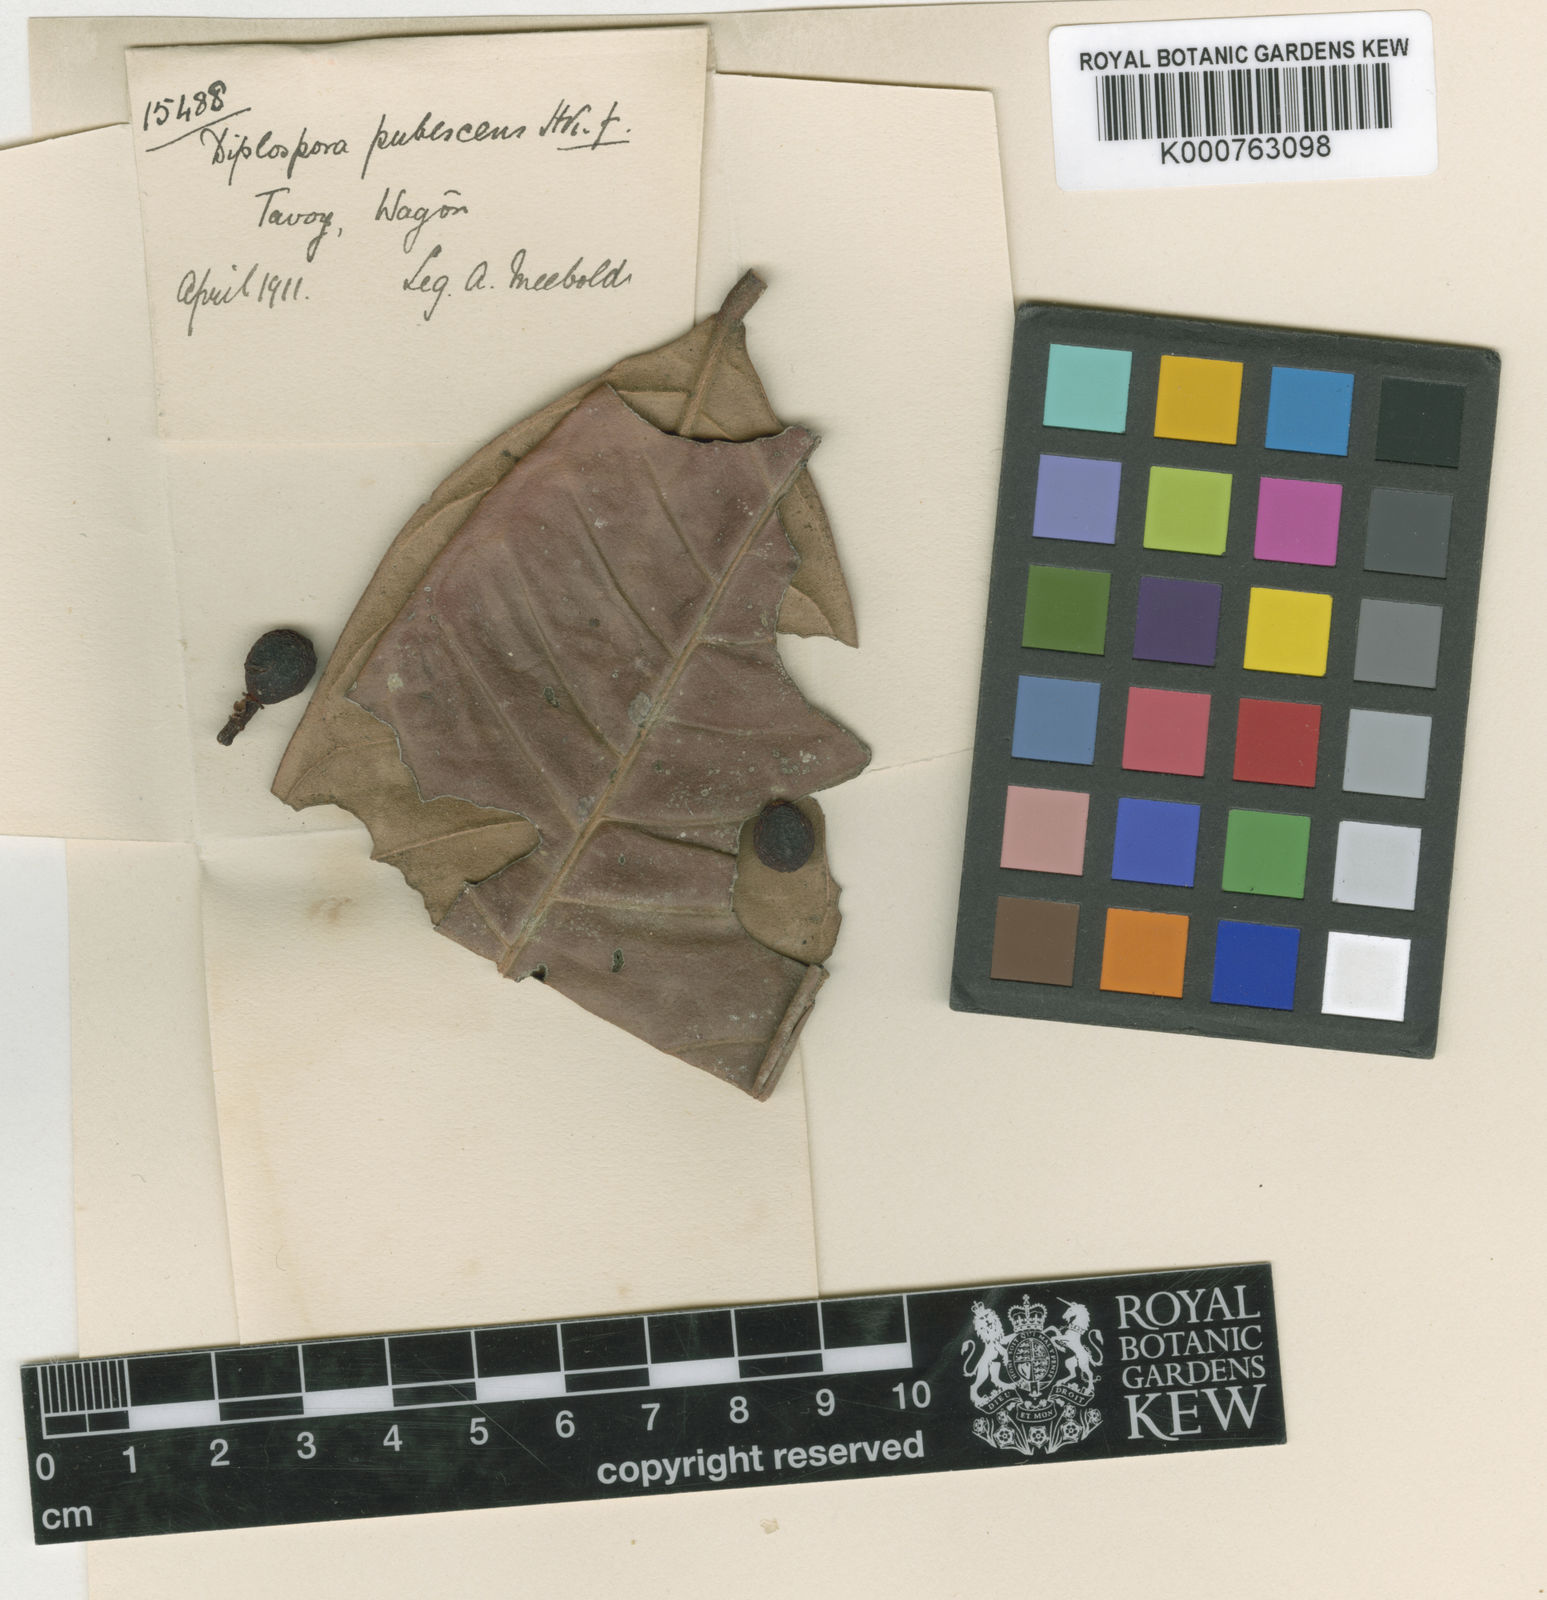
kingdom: Plantae
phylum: Tracheophyta
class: Magnoliopsida
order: Gentianales
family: Rubiaceae
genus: Diplospora
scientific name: Diplospora
